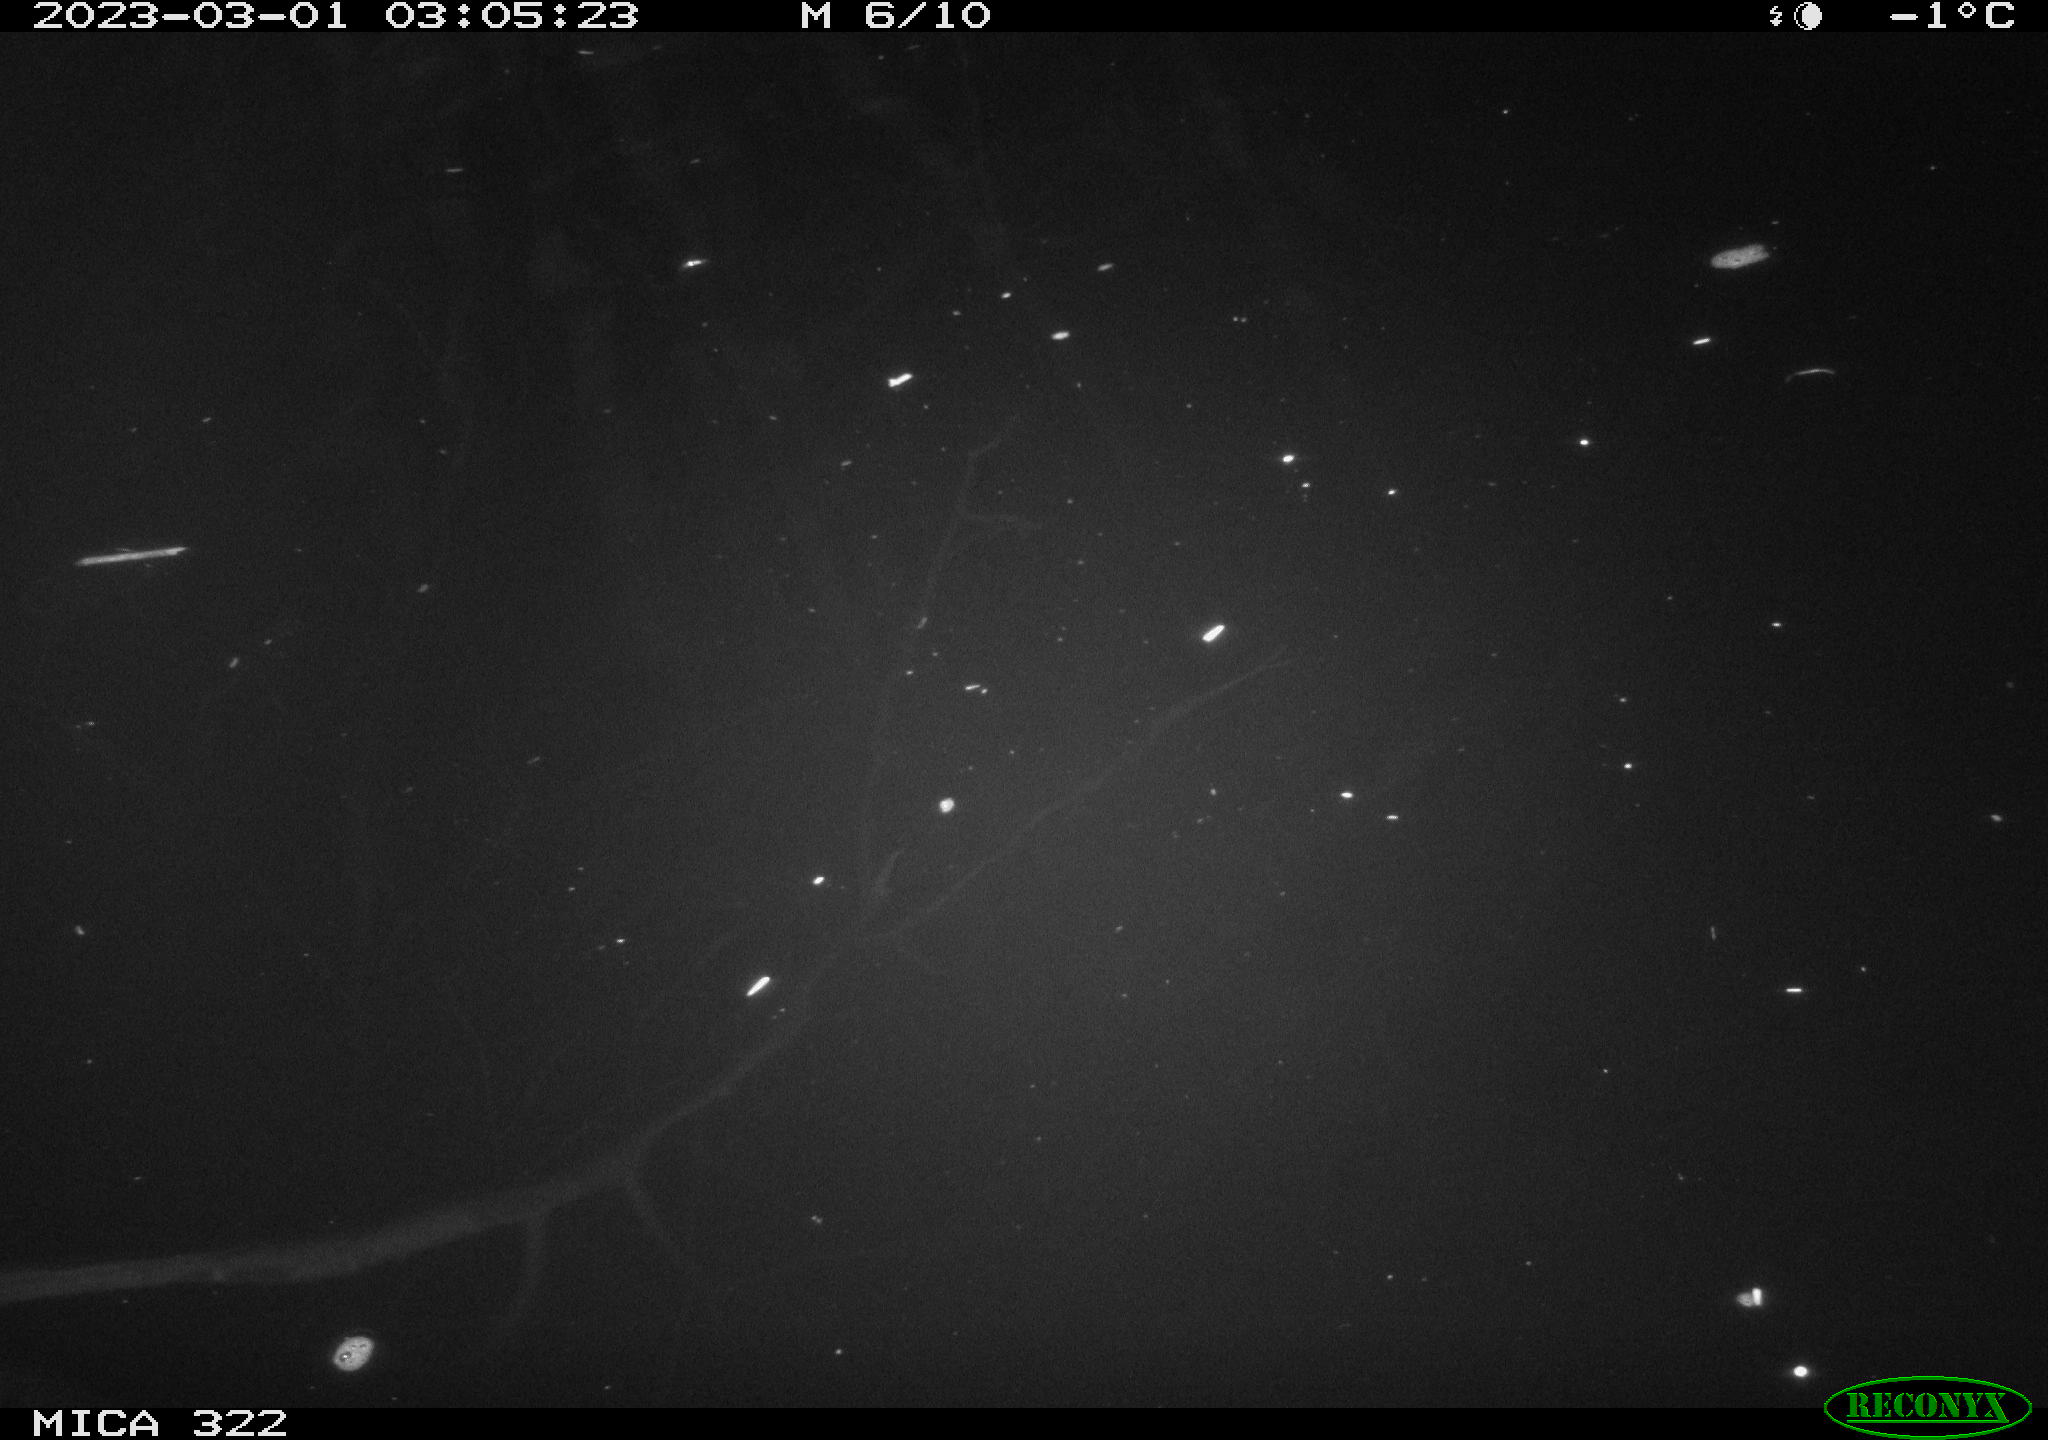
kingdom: Animalia
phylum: Chordata
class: Aves
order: Anseriformes
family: Anatidae
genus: Anas
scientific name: Anas
